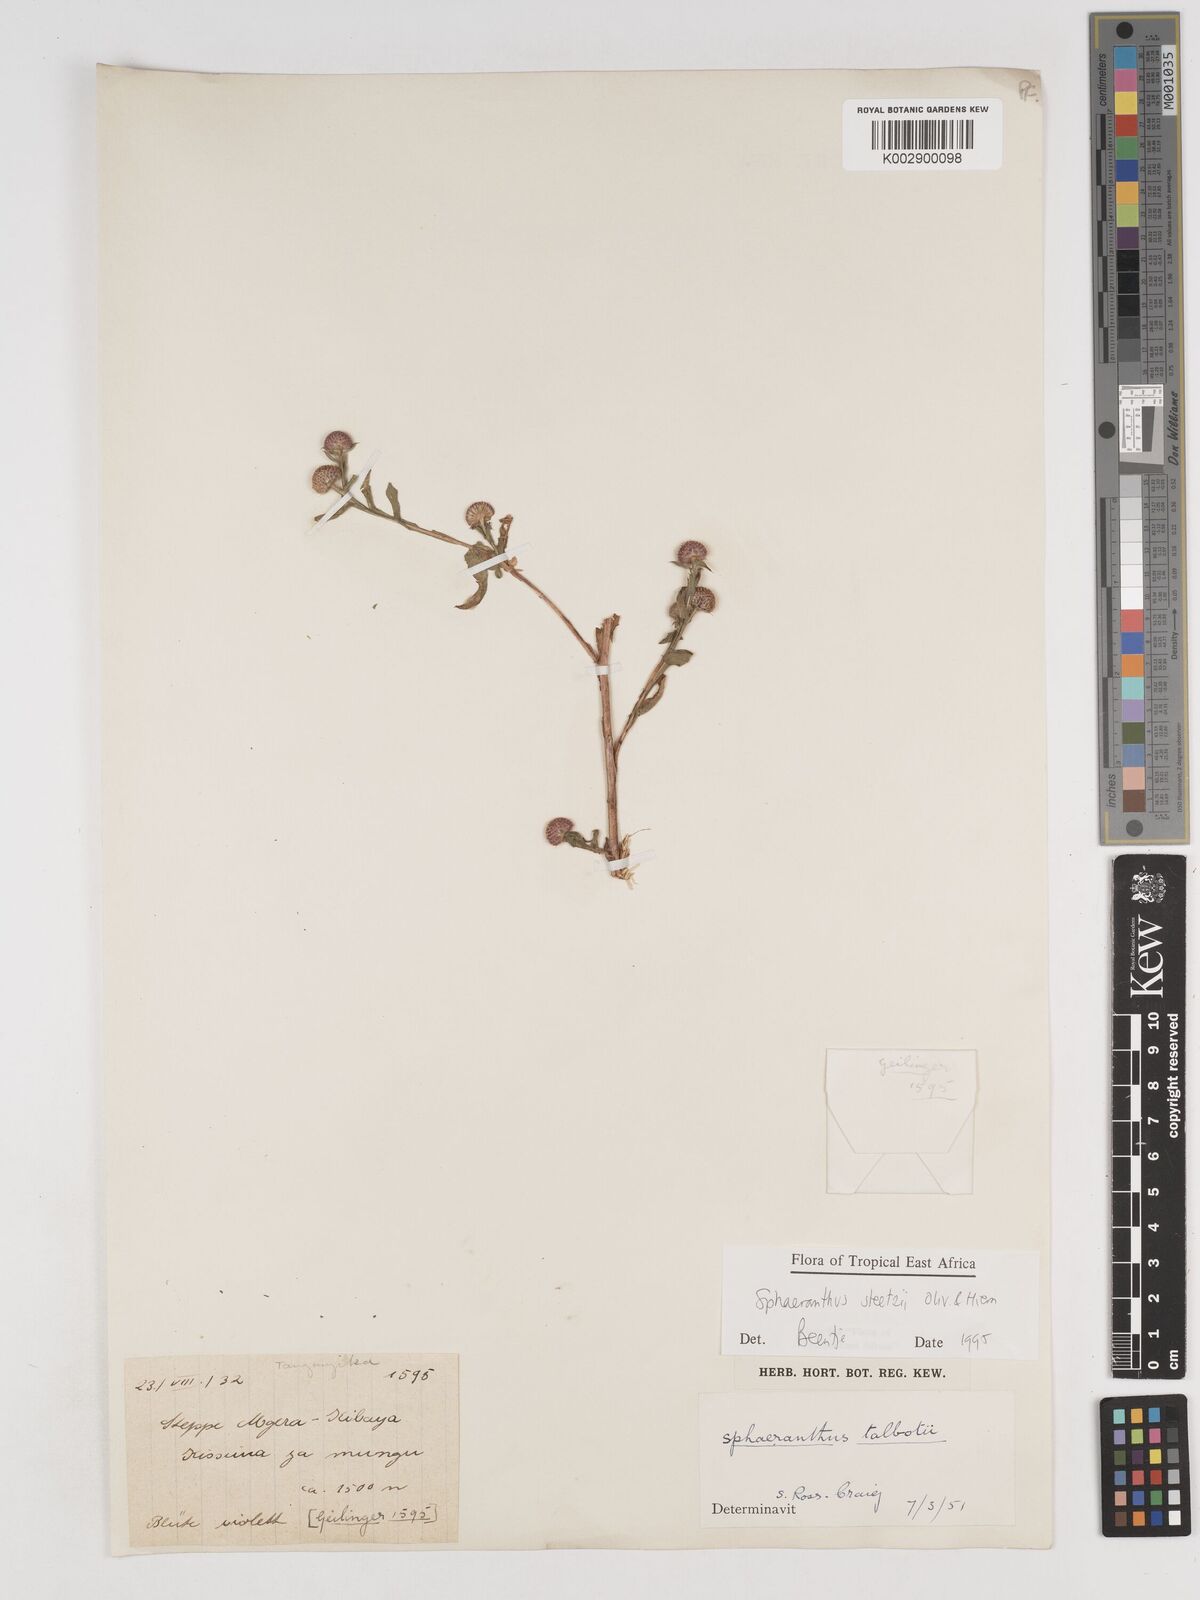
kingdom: Plantae
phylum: Tracheophyta
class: Magnoliopsida
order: Asterales
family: Asteraceae
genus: Sphaeranthus
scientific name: Sphaeranthus steetzii
